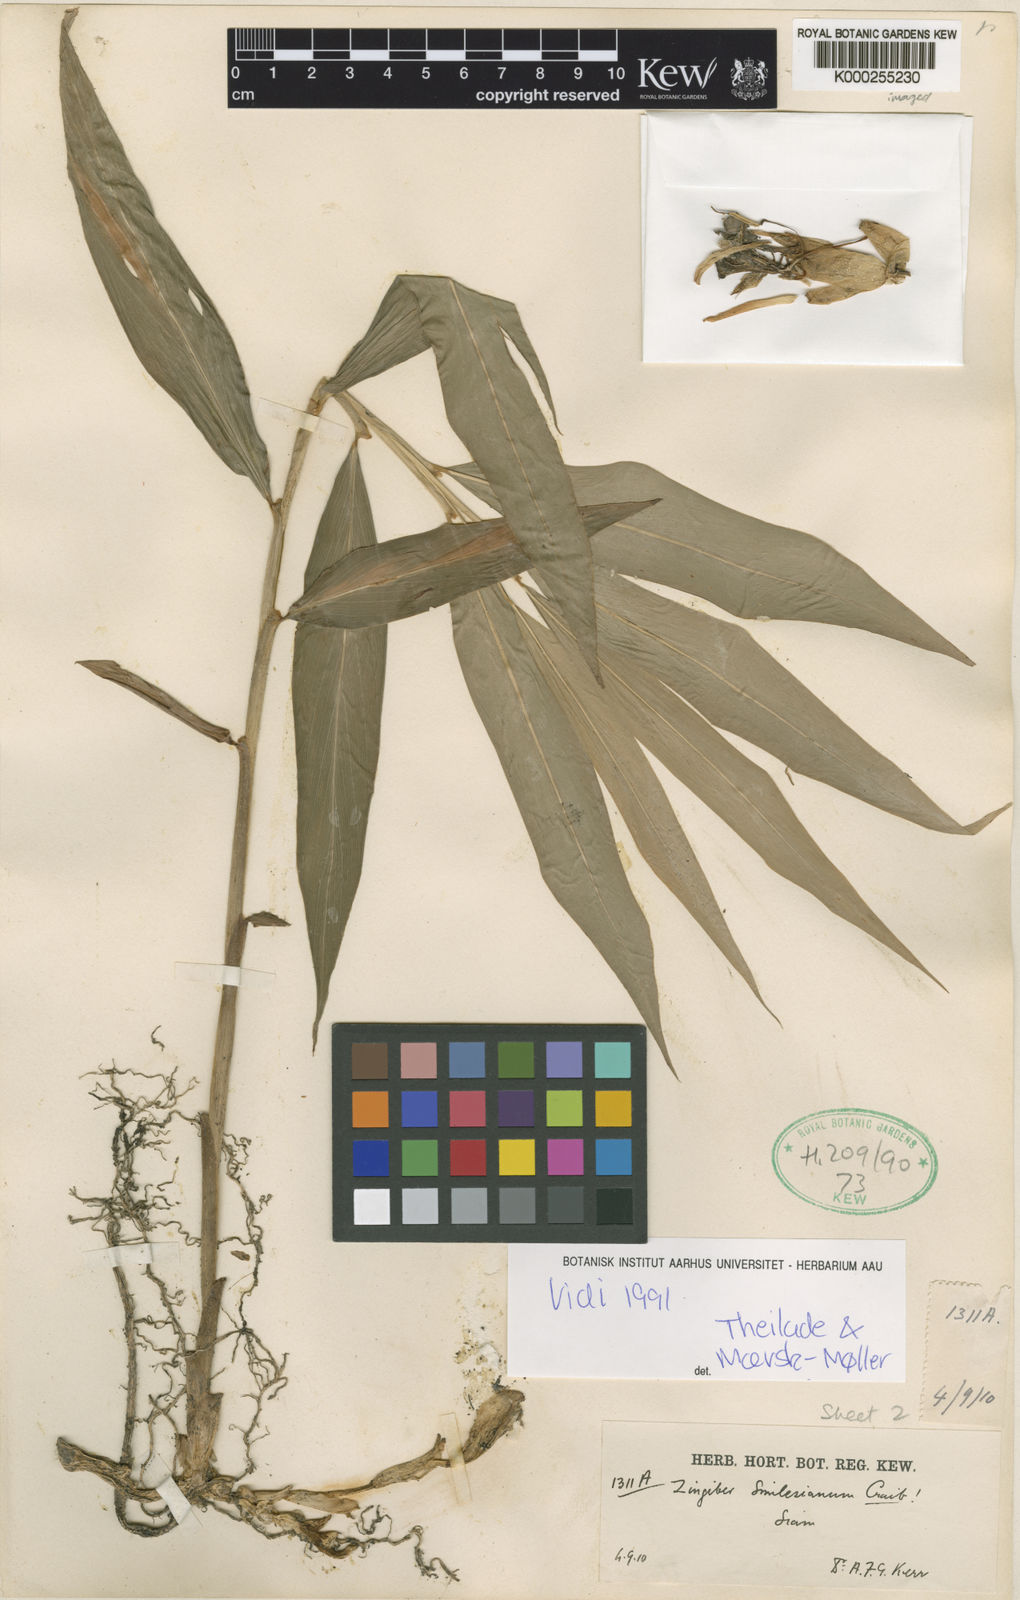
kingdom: Plantae
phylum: Tracheophyta
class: Liliopsida
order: Zingiberales
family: Zingiberaceae
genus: Zingiber
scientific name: Zingiber smilesianum
